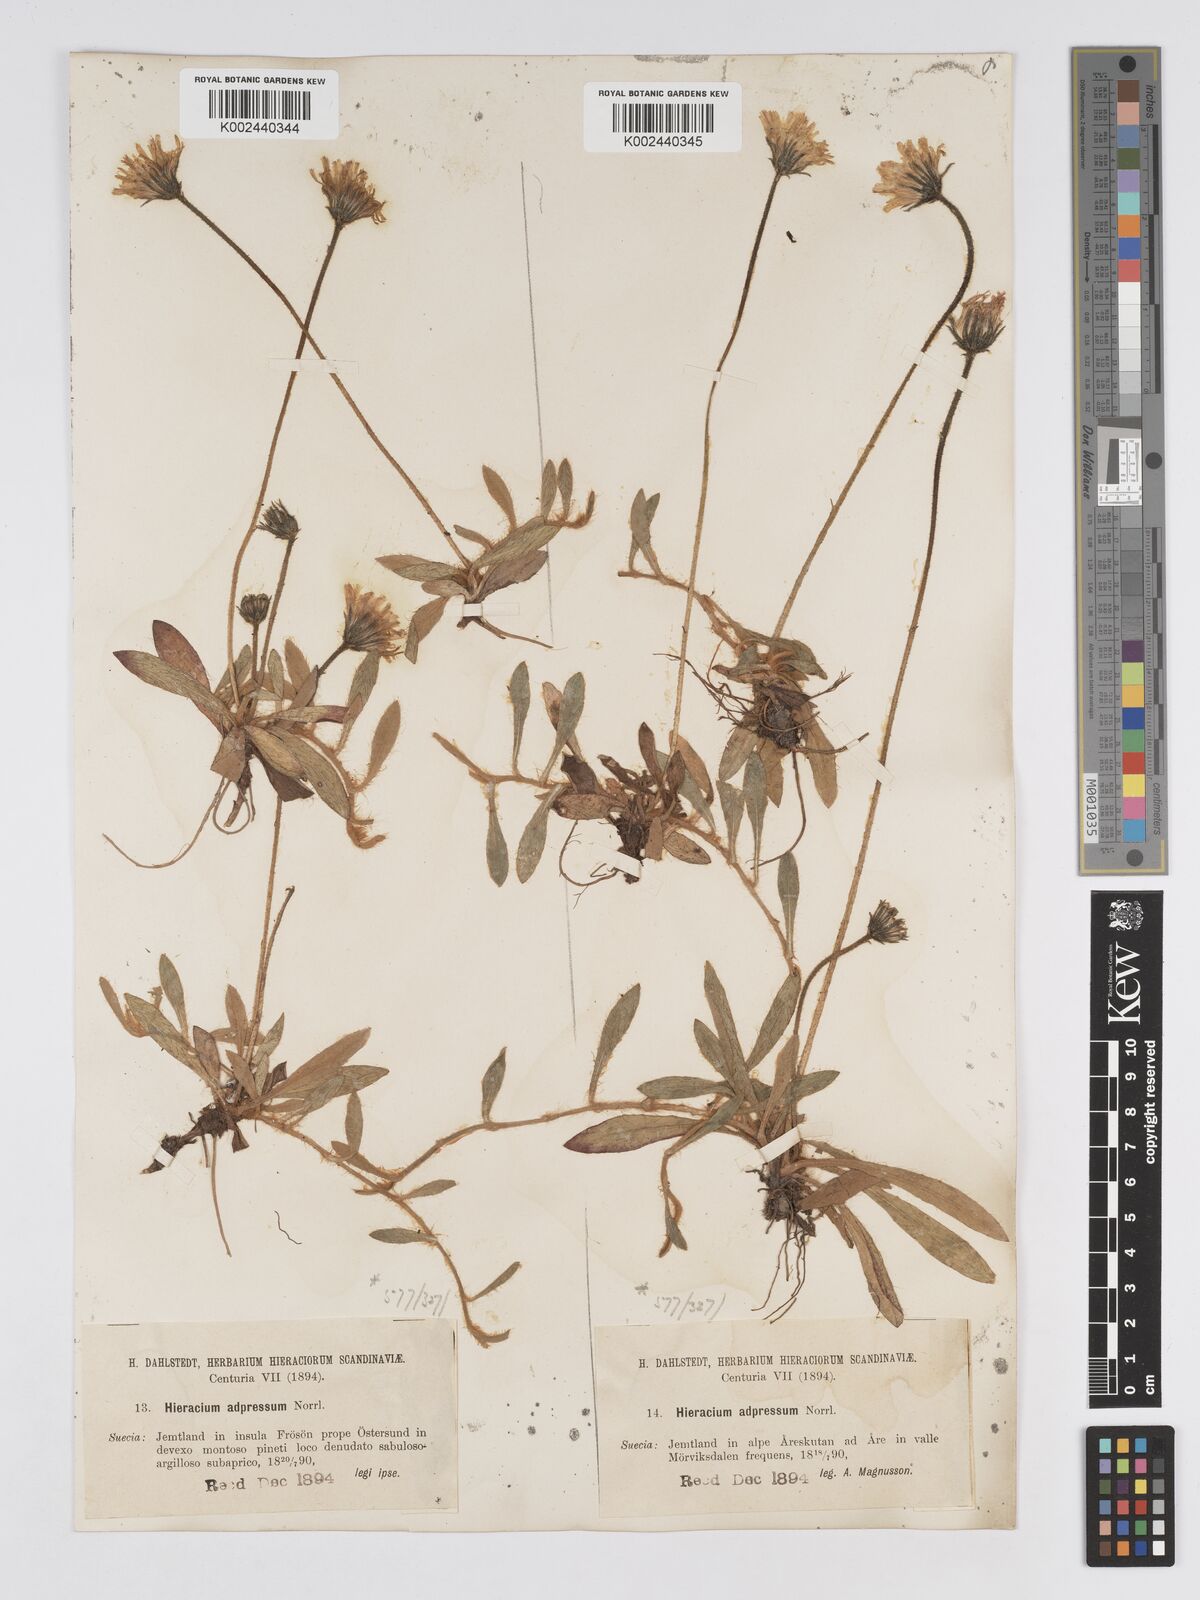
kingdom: Plantae
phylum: Tracheophyta
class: Magnoliopsida
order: Asterales
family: Asteraceae
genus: Pilosella
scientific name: Pilosella officinarum
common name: Mouse-ear hawkweed
